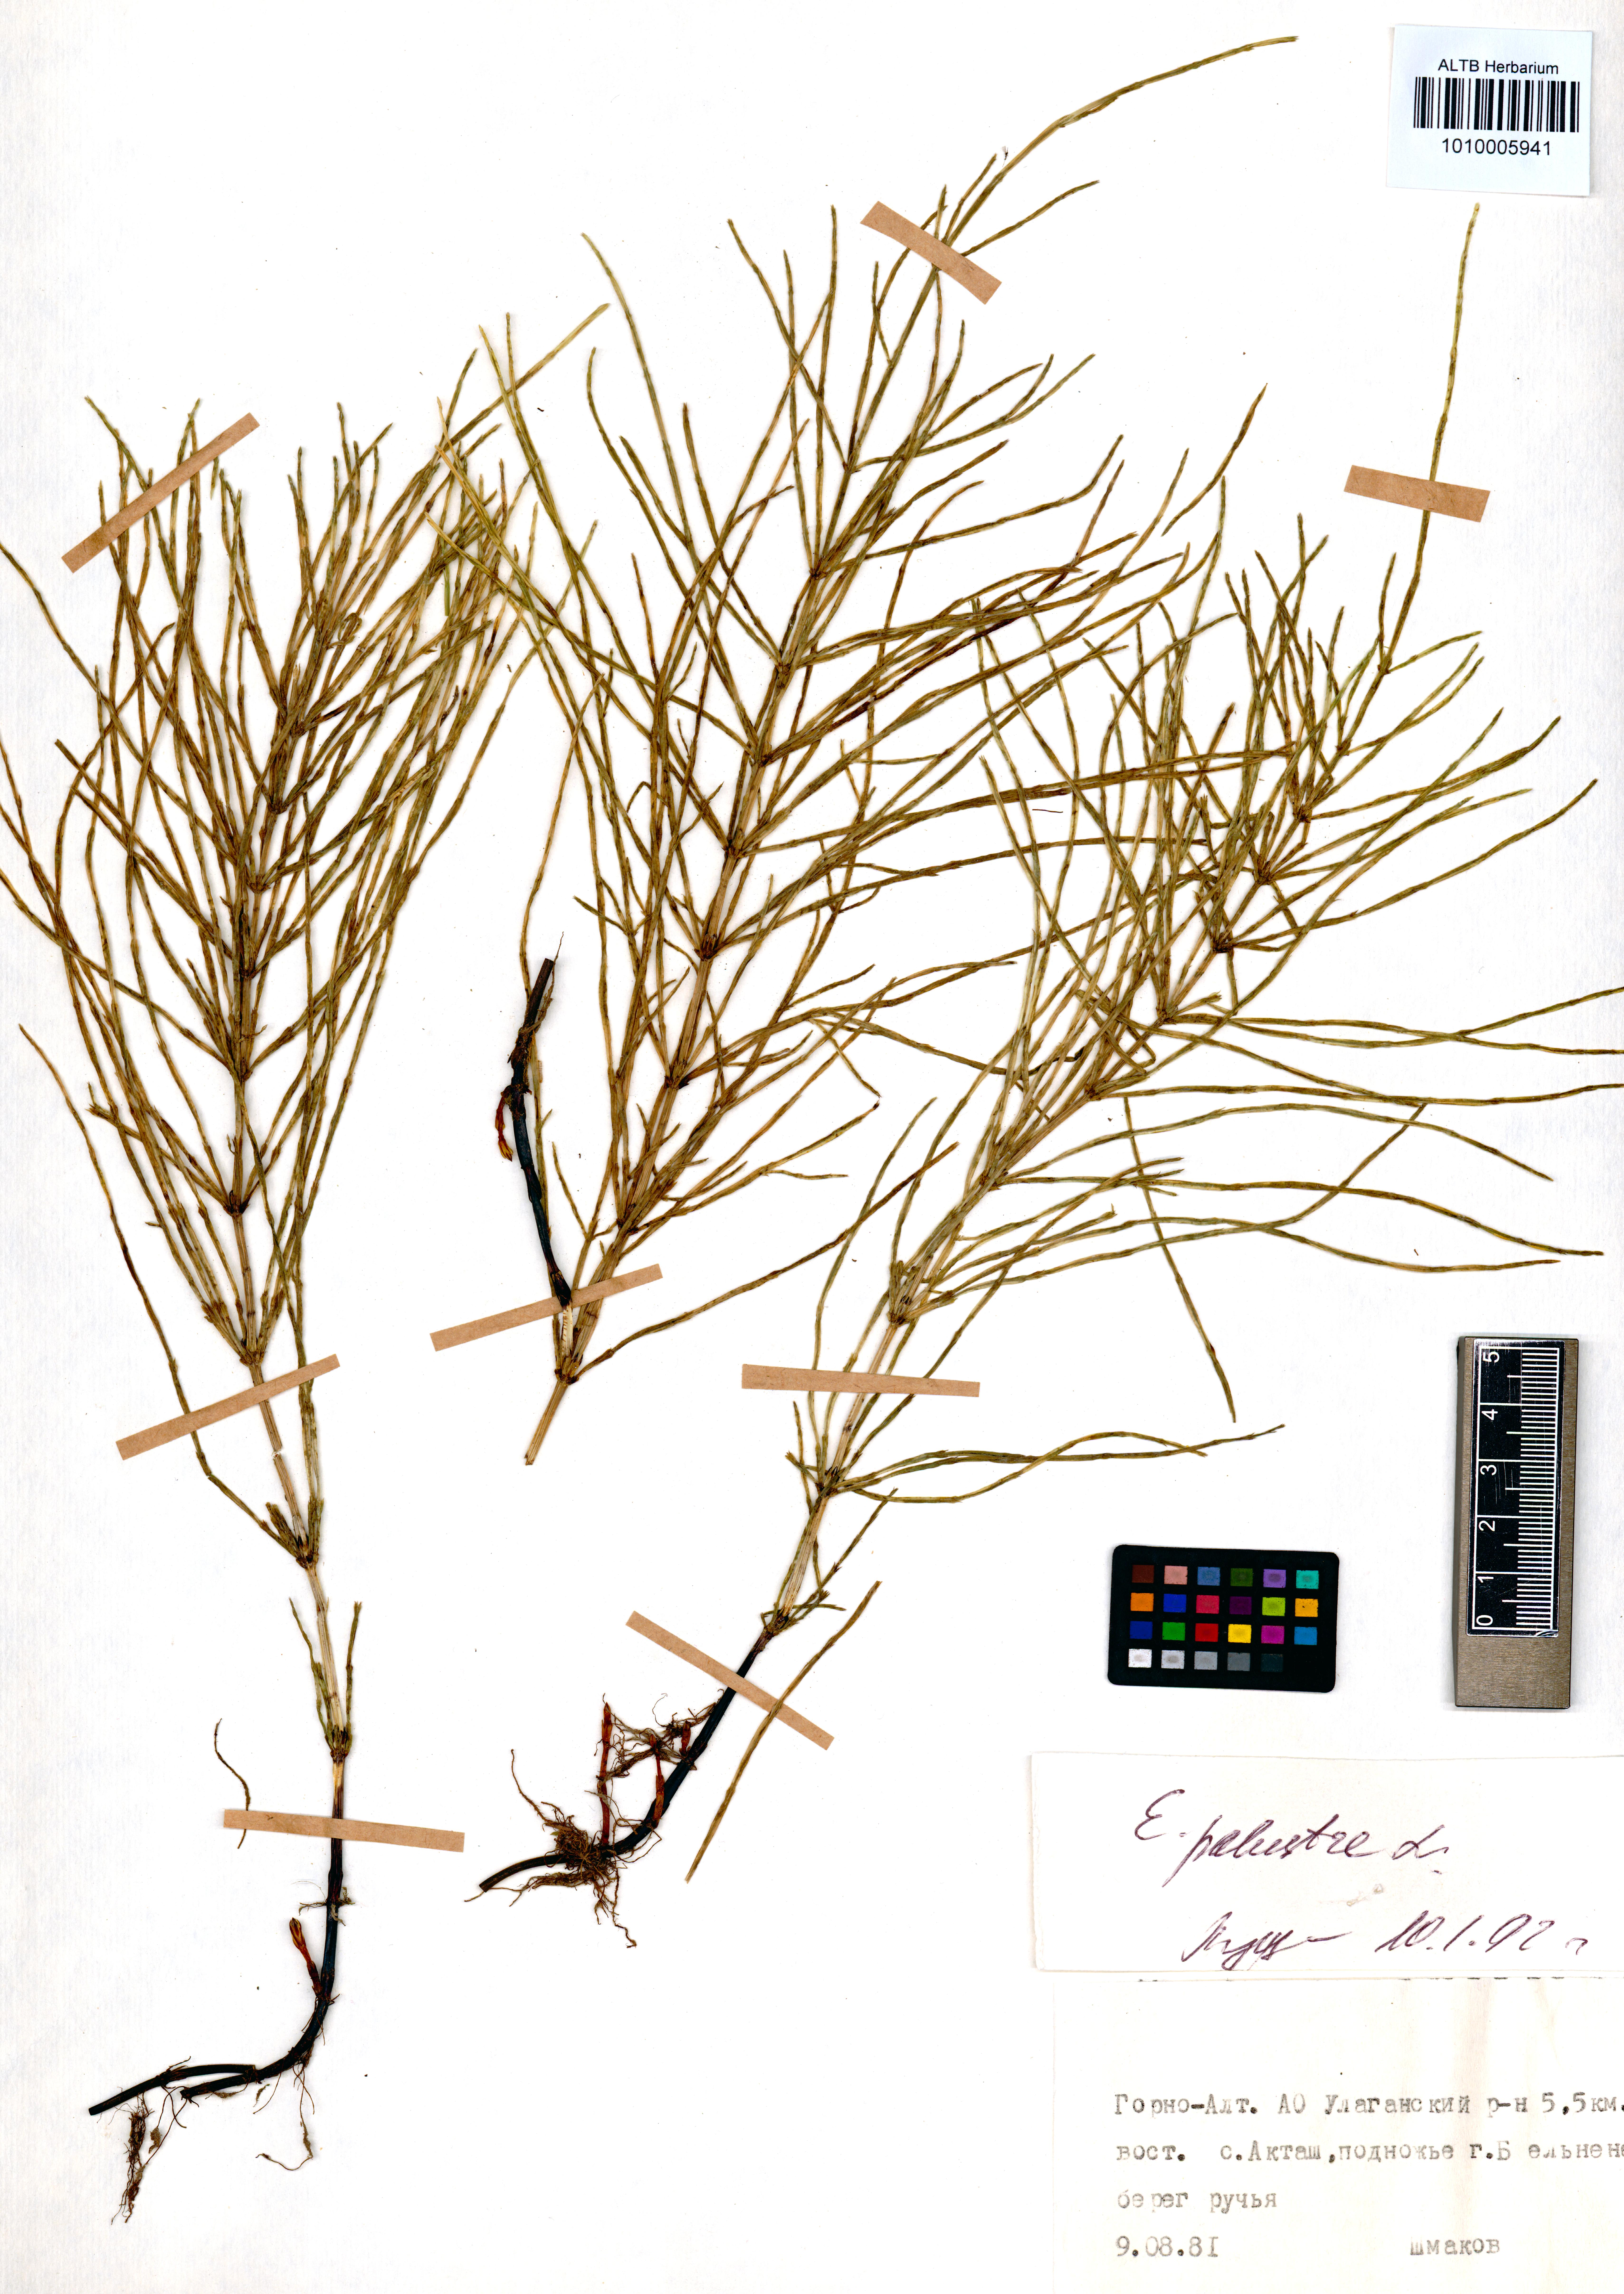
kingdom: Plantae
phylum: Tracheophyta
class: Polypodiopsida
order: Equisetales
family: Equisetaceae
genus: Equisetum
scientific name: Equisetum palustre
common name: Marsh horsetail
